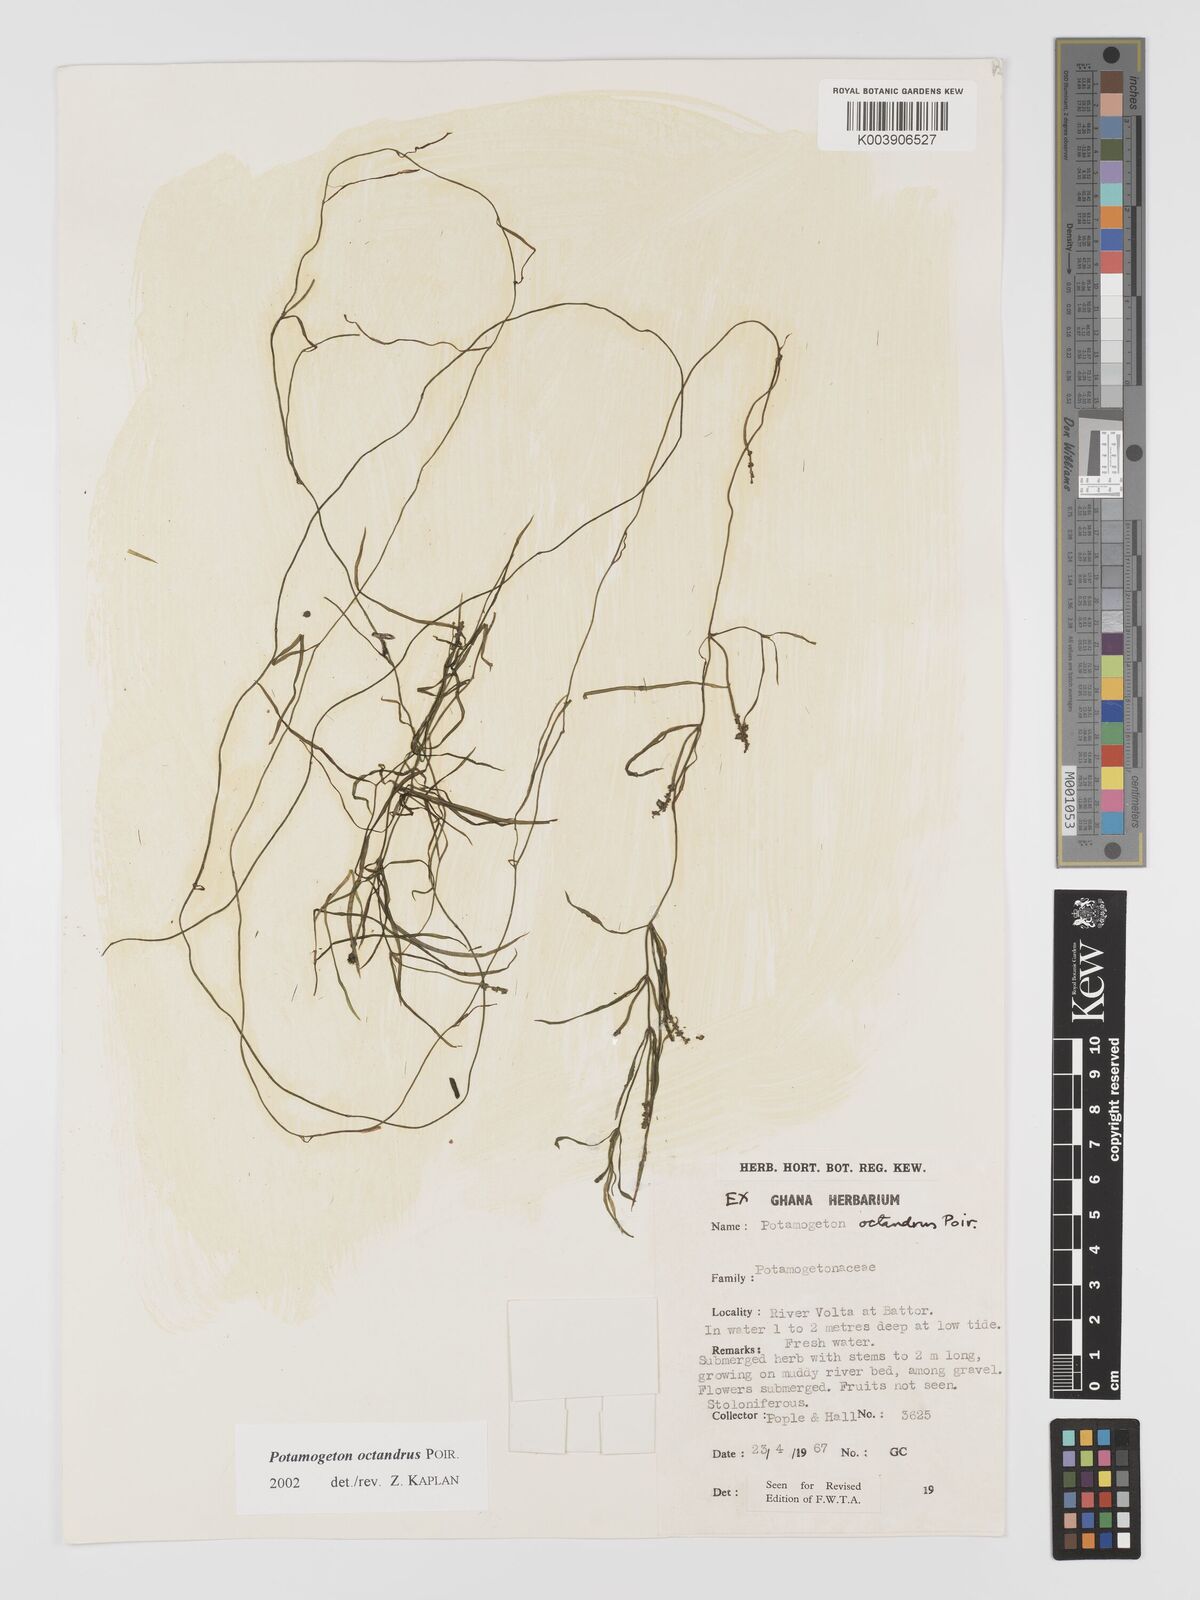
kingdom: Plantae
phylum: Tracheophyta
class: Liliopsida
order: Alismatales
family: Potamogetonaceae
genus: Potamogeton
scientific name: Potamogeton octandrus
